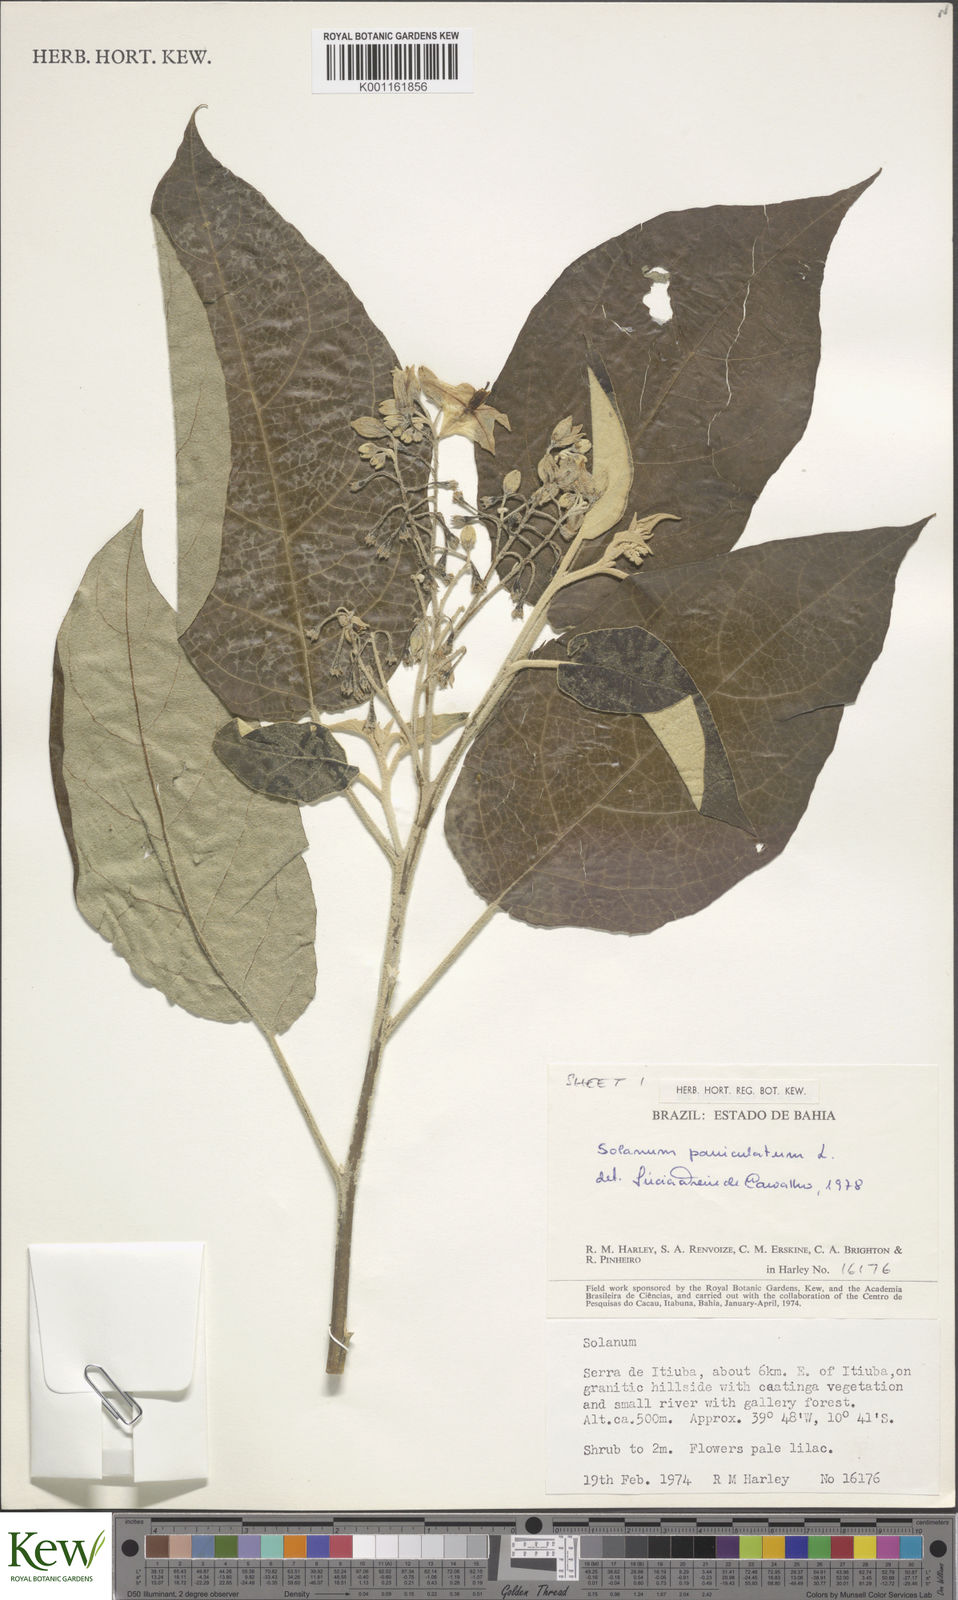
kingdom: Plantae
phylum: Tracheophyta
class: Magnoliopsida
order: Solanales
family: Solanaceae
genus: Solanum
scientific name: Solanum paniculatum
